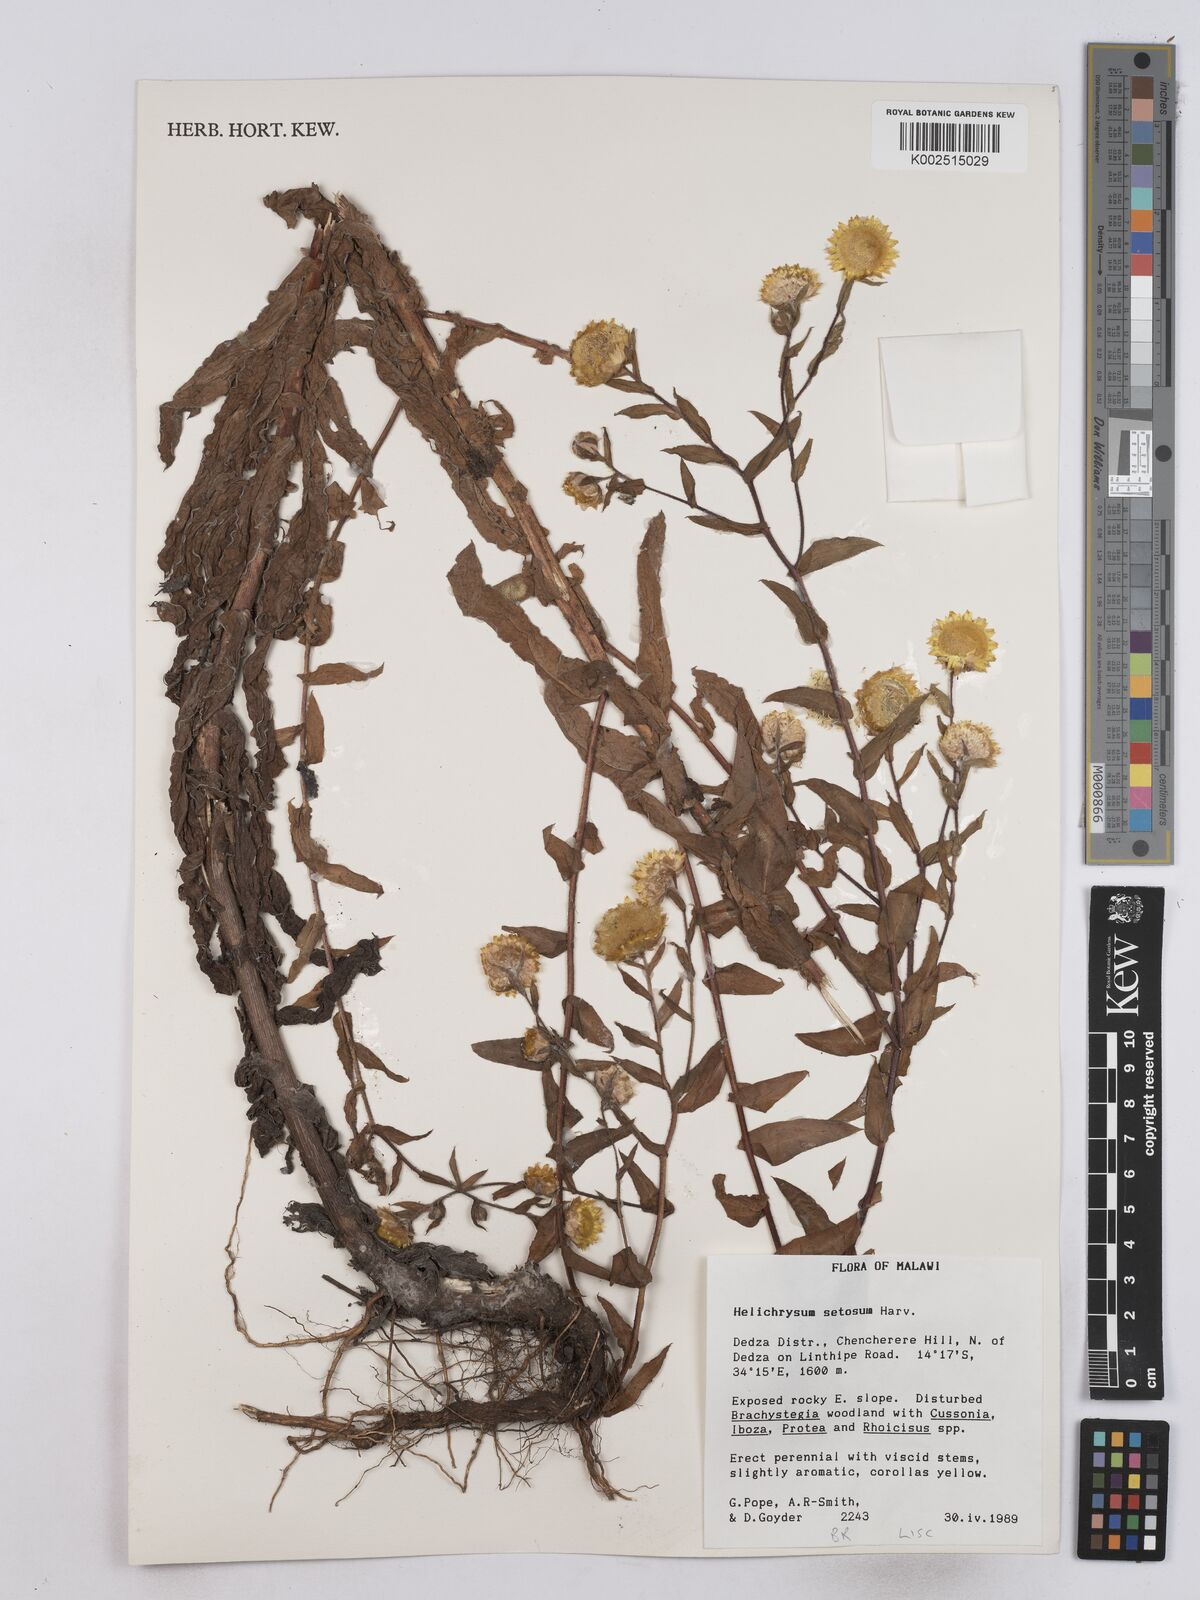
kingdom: Plantae
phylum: Tracheophyta
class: Magnoliopsida
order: Asterales
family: Asteraceae
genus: Helichrysum
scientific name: Helichrysum setosum
